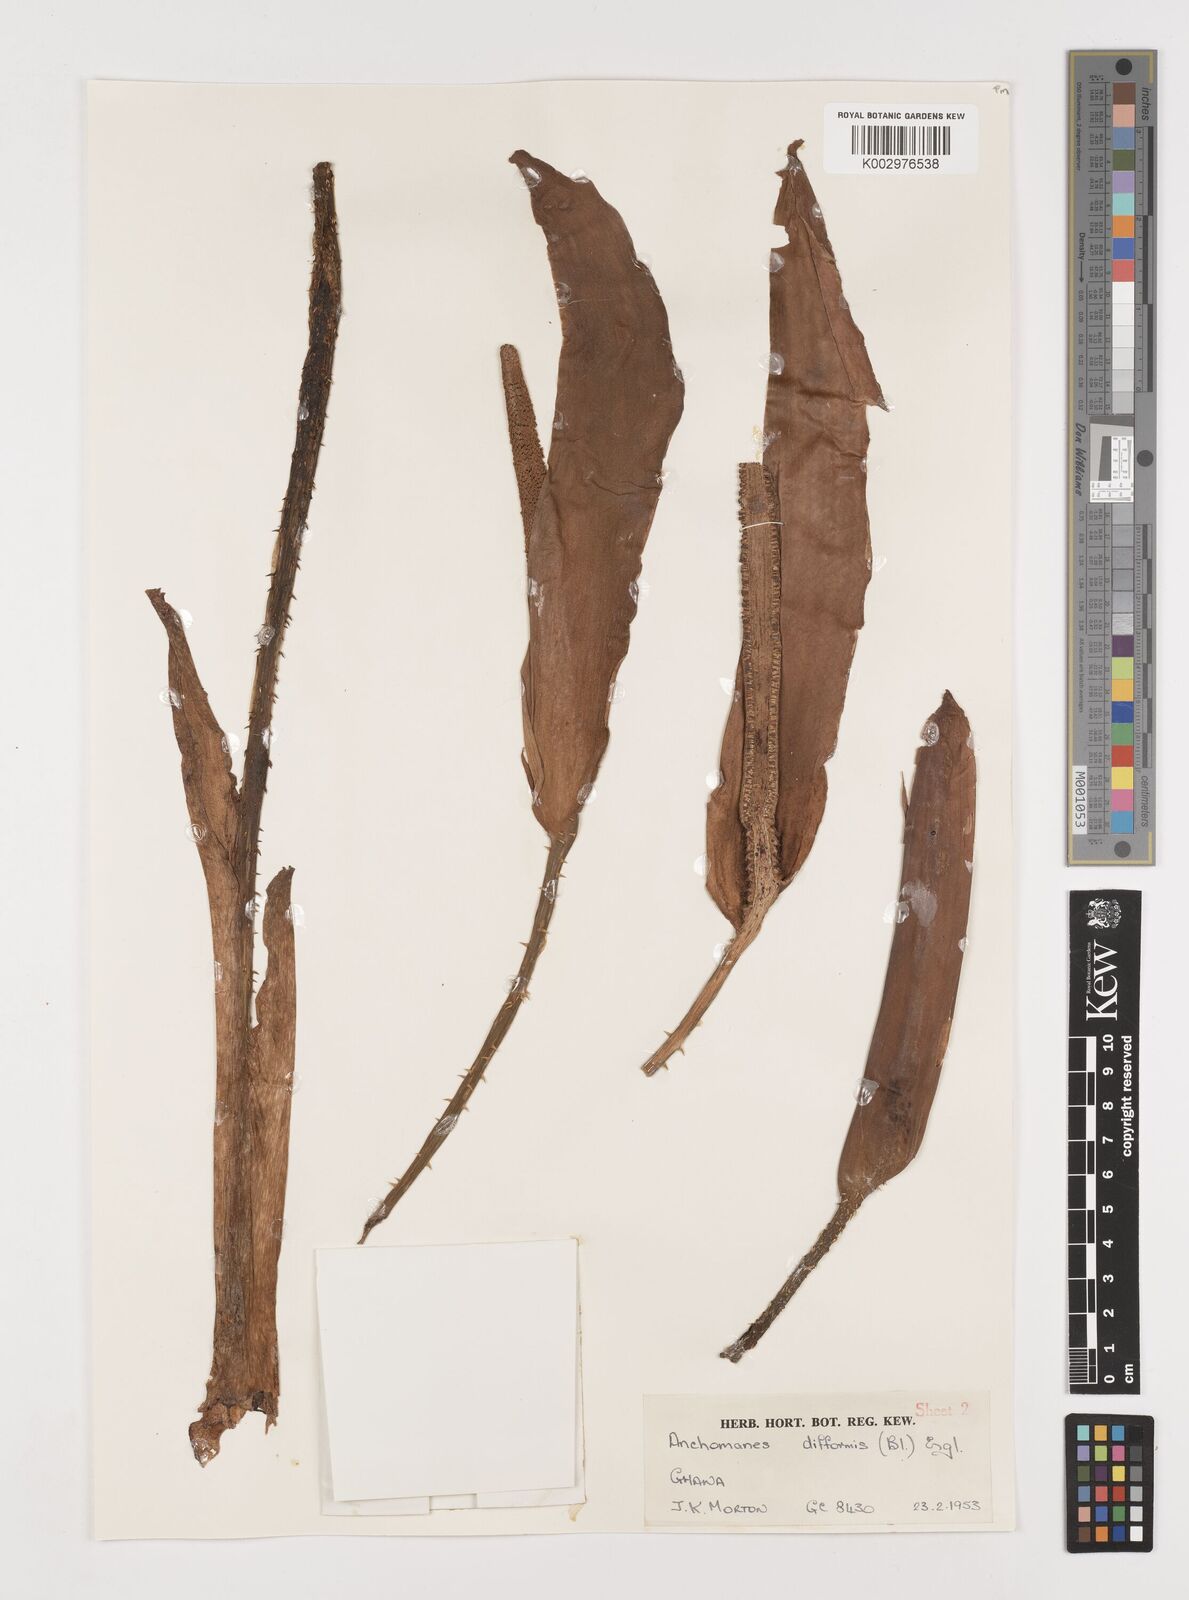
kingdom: Plantae
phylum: Tracheophyta
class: Liliopsida
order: Alismatales
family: Araceae
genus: Anchomanes
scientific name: Anchomanes difformis
